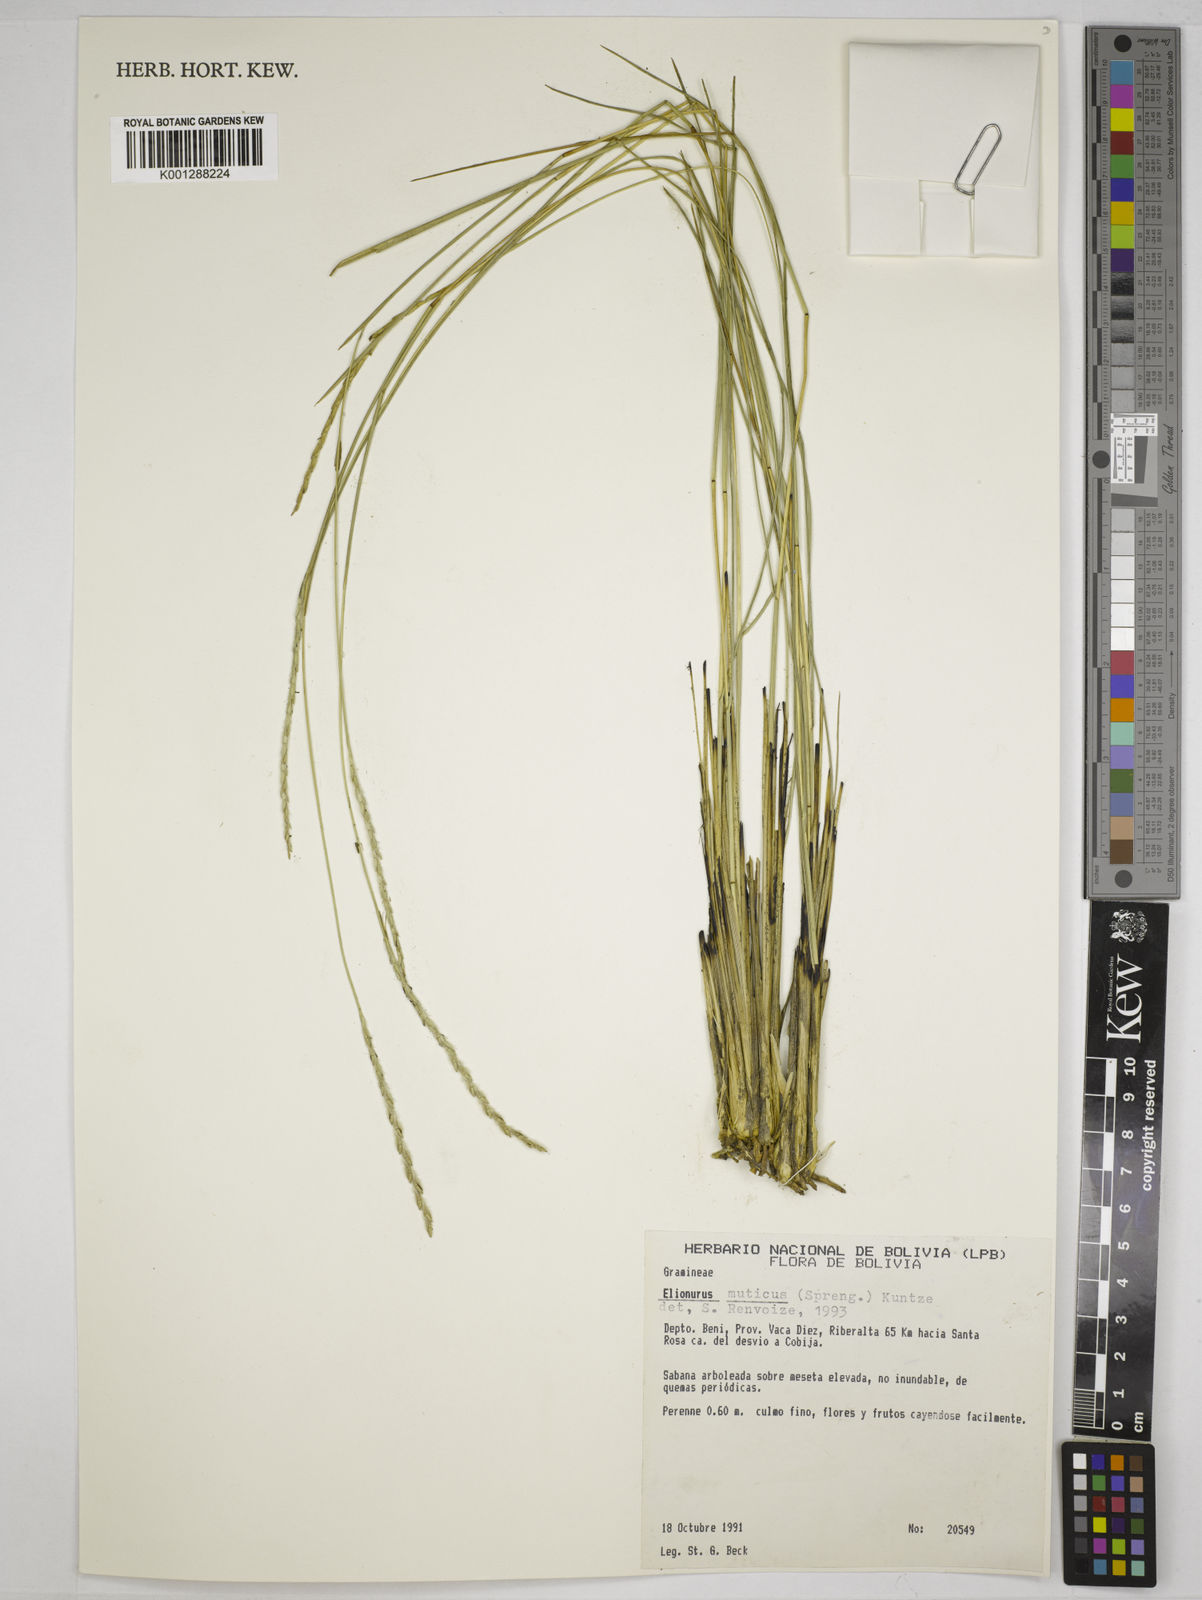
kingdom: Plantae
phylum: Tracheophyta
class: Liliopsida
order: Poales
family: Poaceae
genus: Elionurus
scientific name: Elionurus muticus
